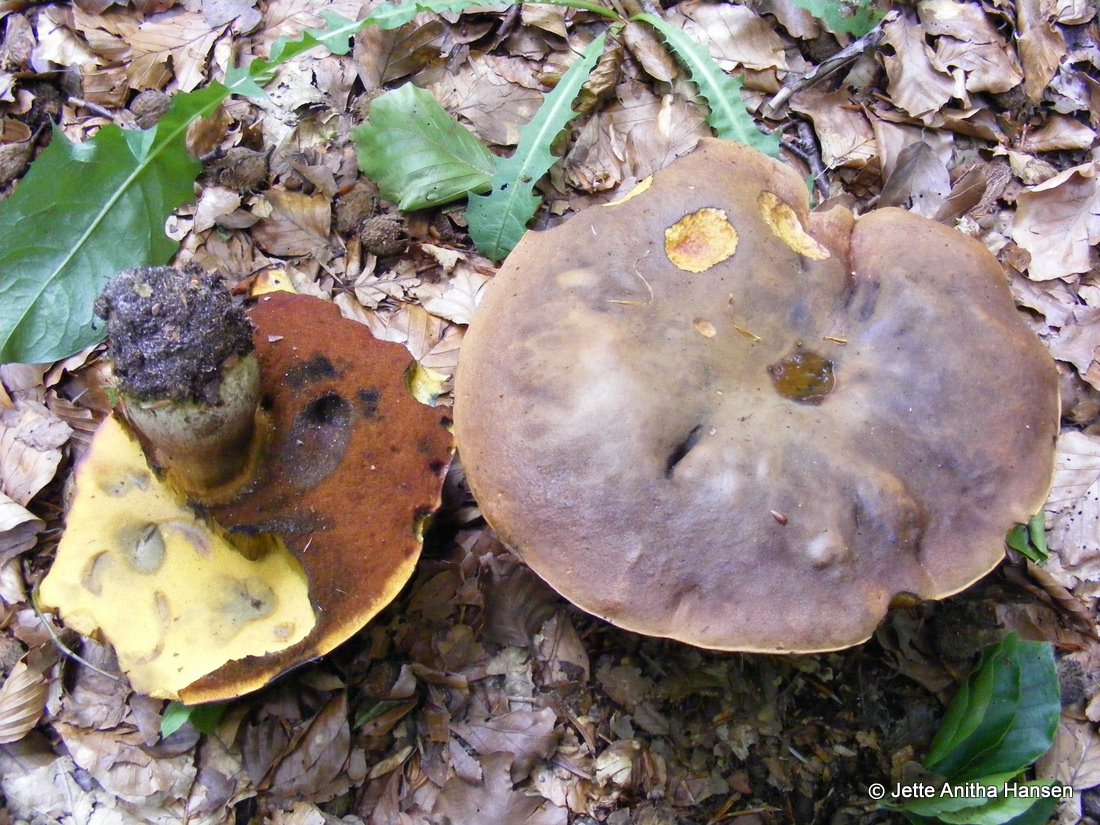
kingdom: Fungi
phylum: Basidiomycota
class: Agaricomycetes
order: Boletales
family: Boletaceae
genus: Neoboletus
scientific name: Neoboletus erythropus
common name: punktstokket indigorørhat
